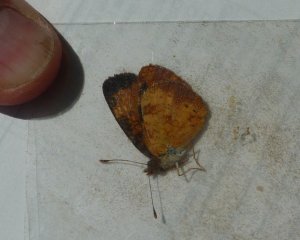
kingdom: Animalia
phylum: Arthropoda
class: Insecta
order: Lepidoptera
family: Nymphalidae
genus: Phyciodes
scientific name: Phyciodes tharos
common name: Northern Crescent
